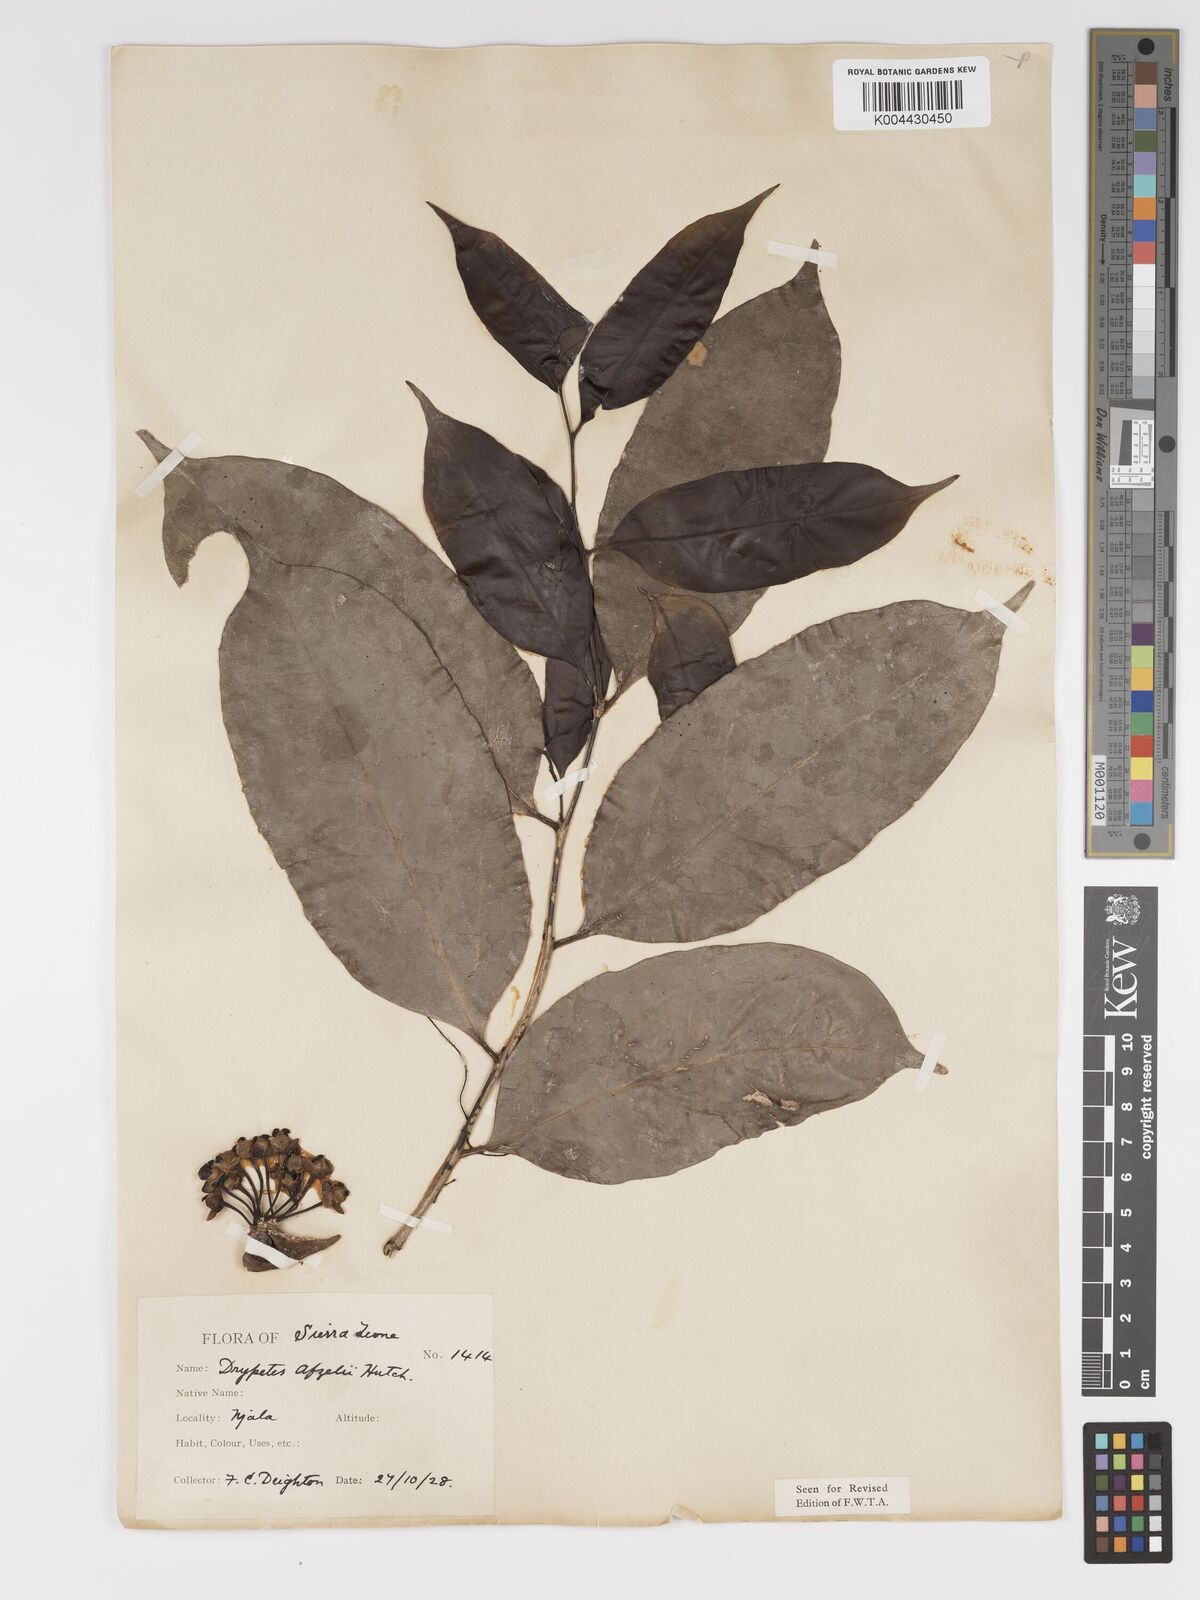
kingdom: Plantae
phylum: Tracheophyta
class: Magnoliopsida
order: Malpighiales
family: Putranjivaceae
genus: Drypetes
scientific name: Drypetes afzelii
